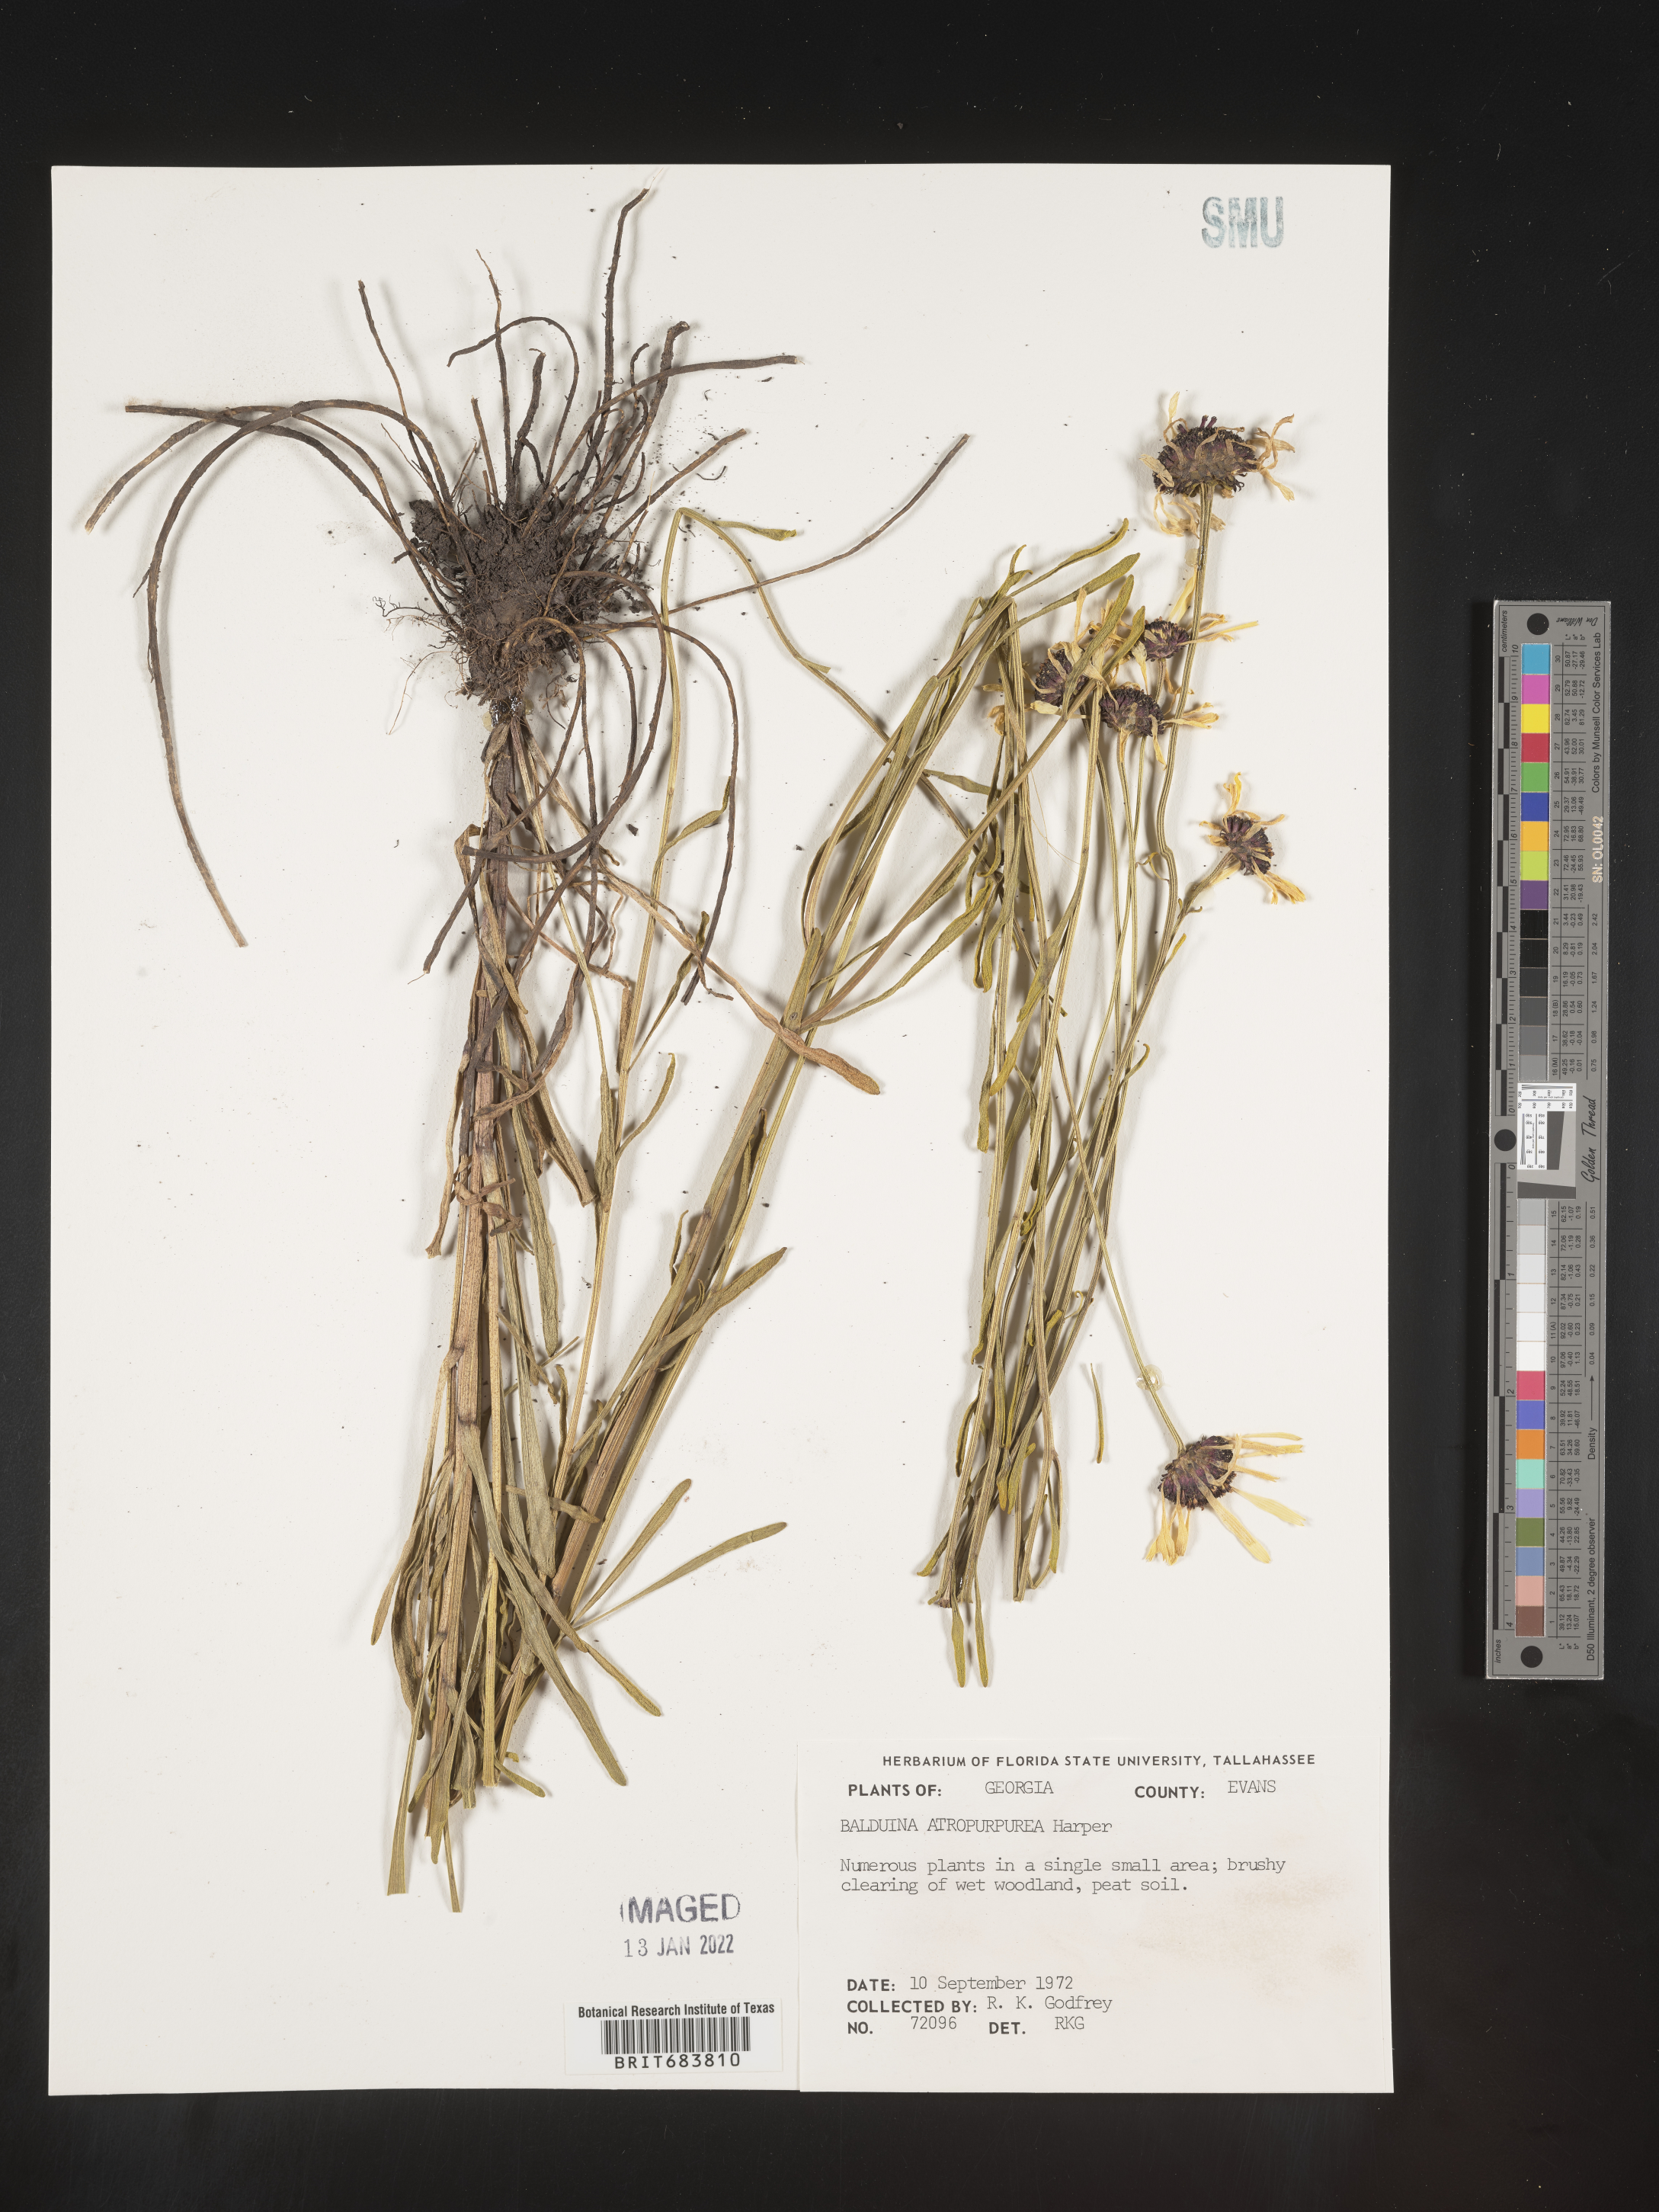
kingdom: Plantae
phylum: Tracheophyta
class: Magnoliopsida
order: Asterales
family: Asteraceae
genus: Balduina
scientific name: Balduina angustifolia
